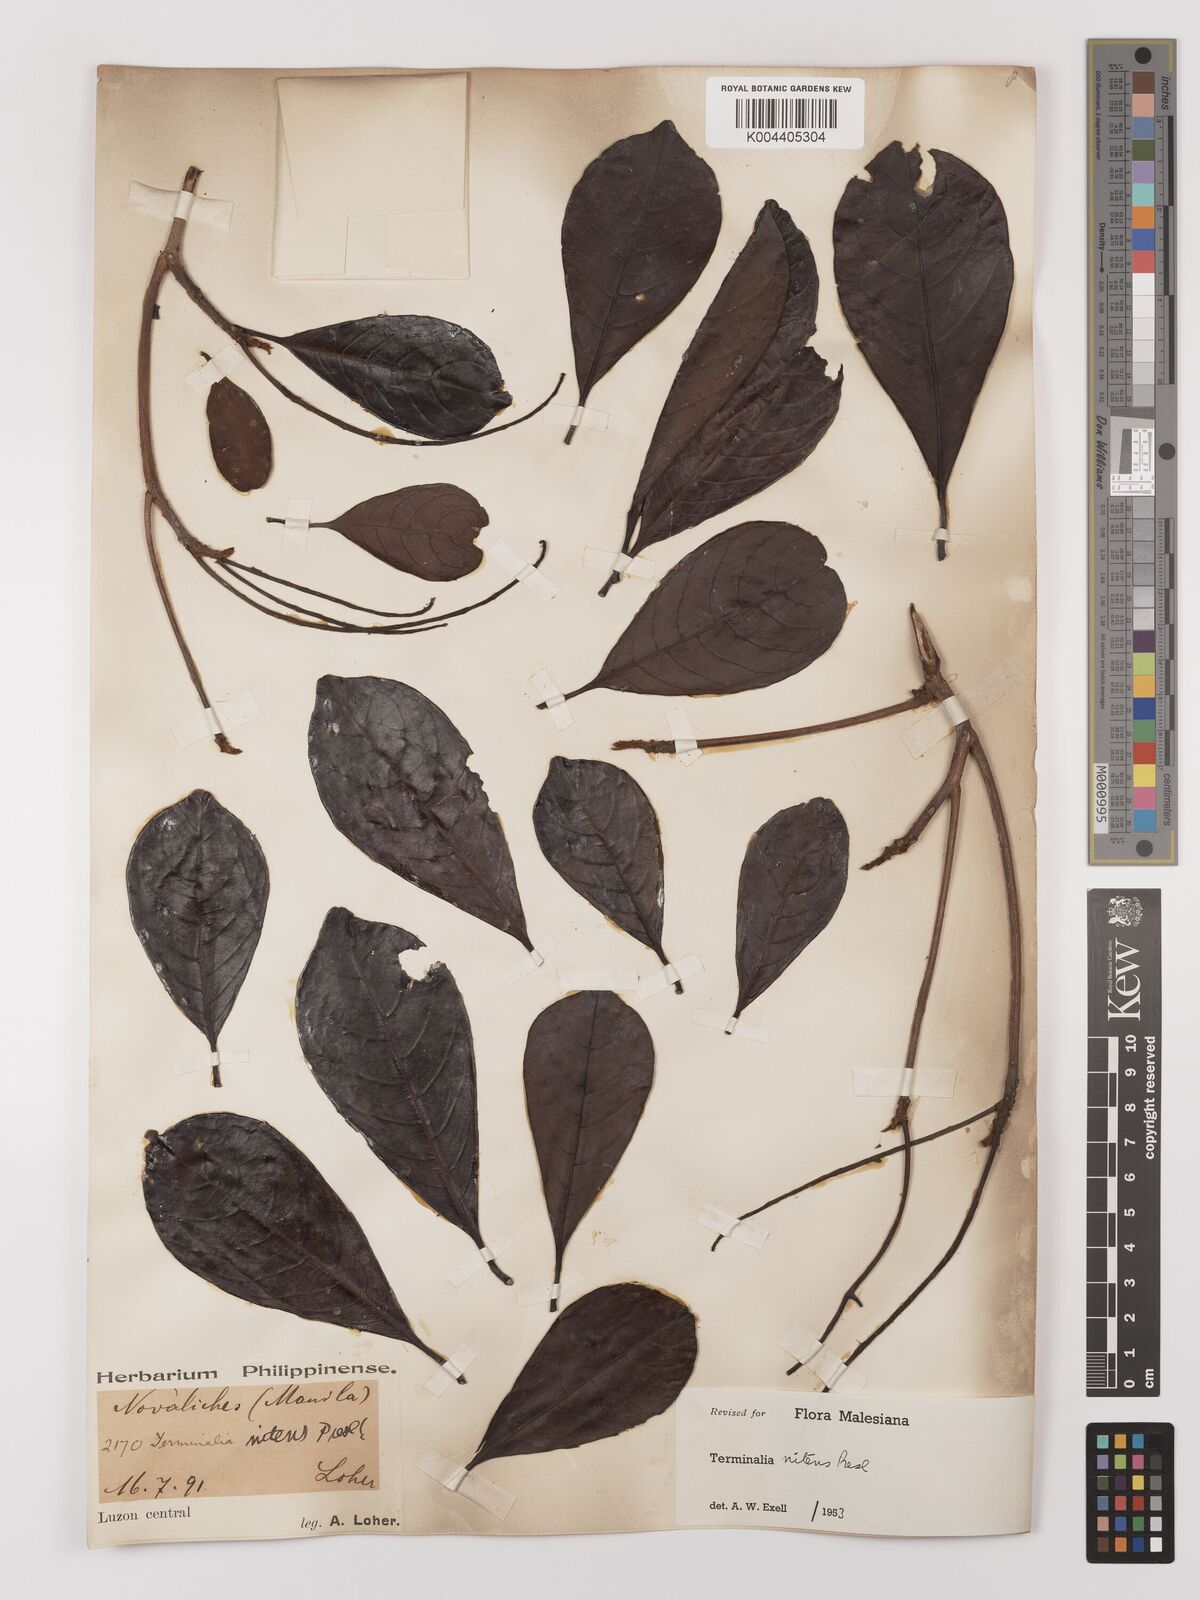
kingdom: Plantae
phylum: Tracheophyta
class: Magnoliopsida
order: Myrtales
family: Combretaceae
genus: Terminalia
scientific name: Terminalia nitens
